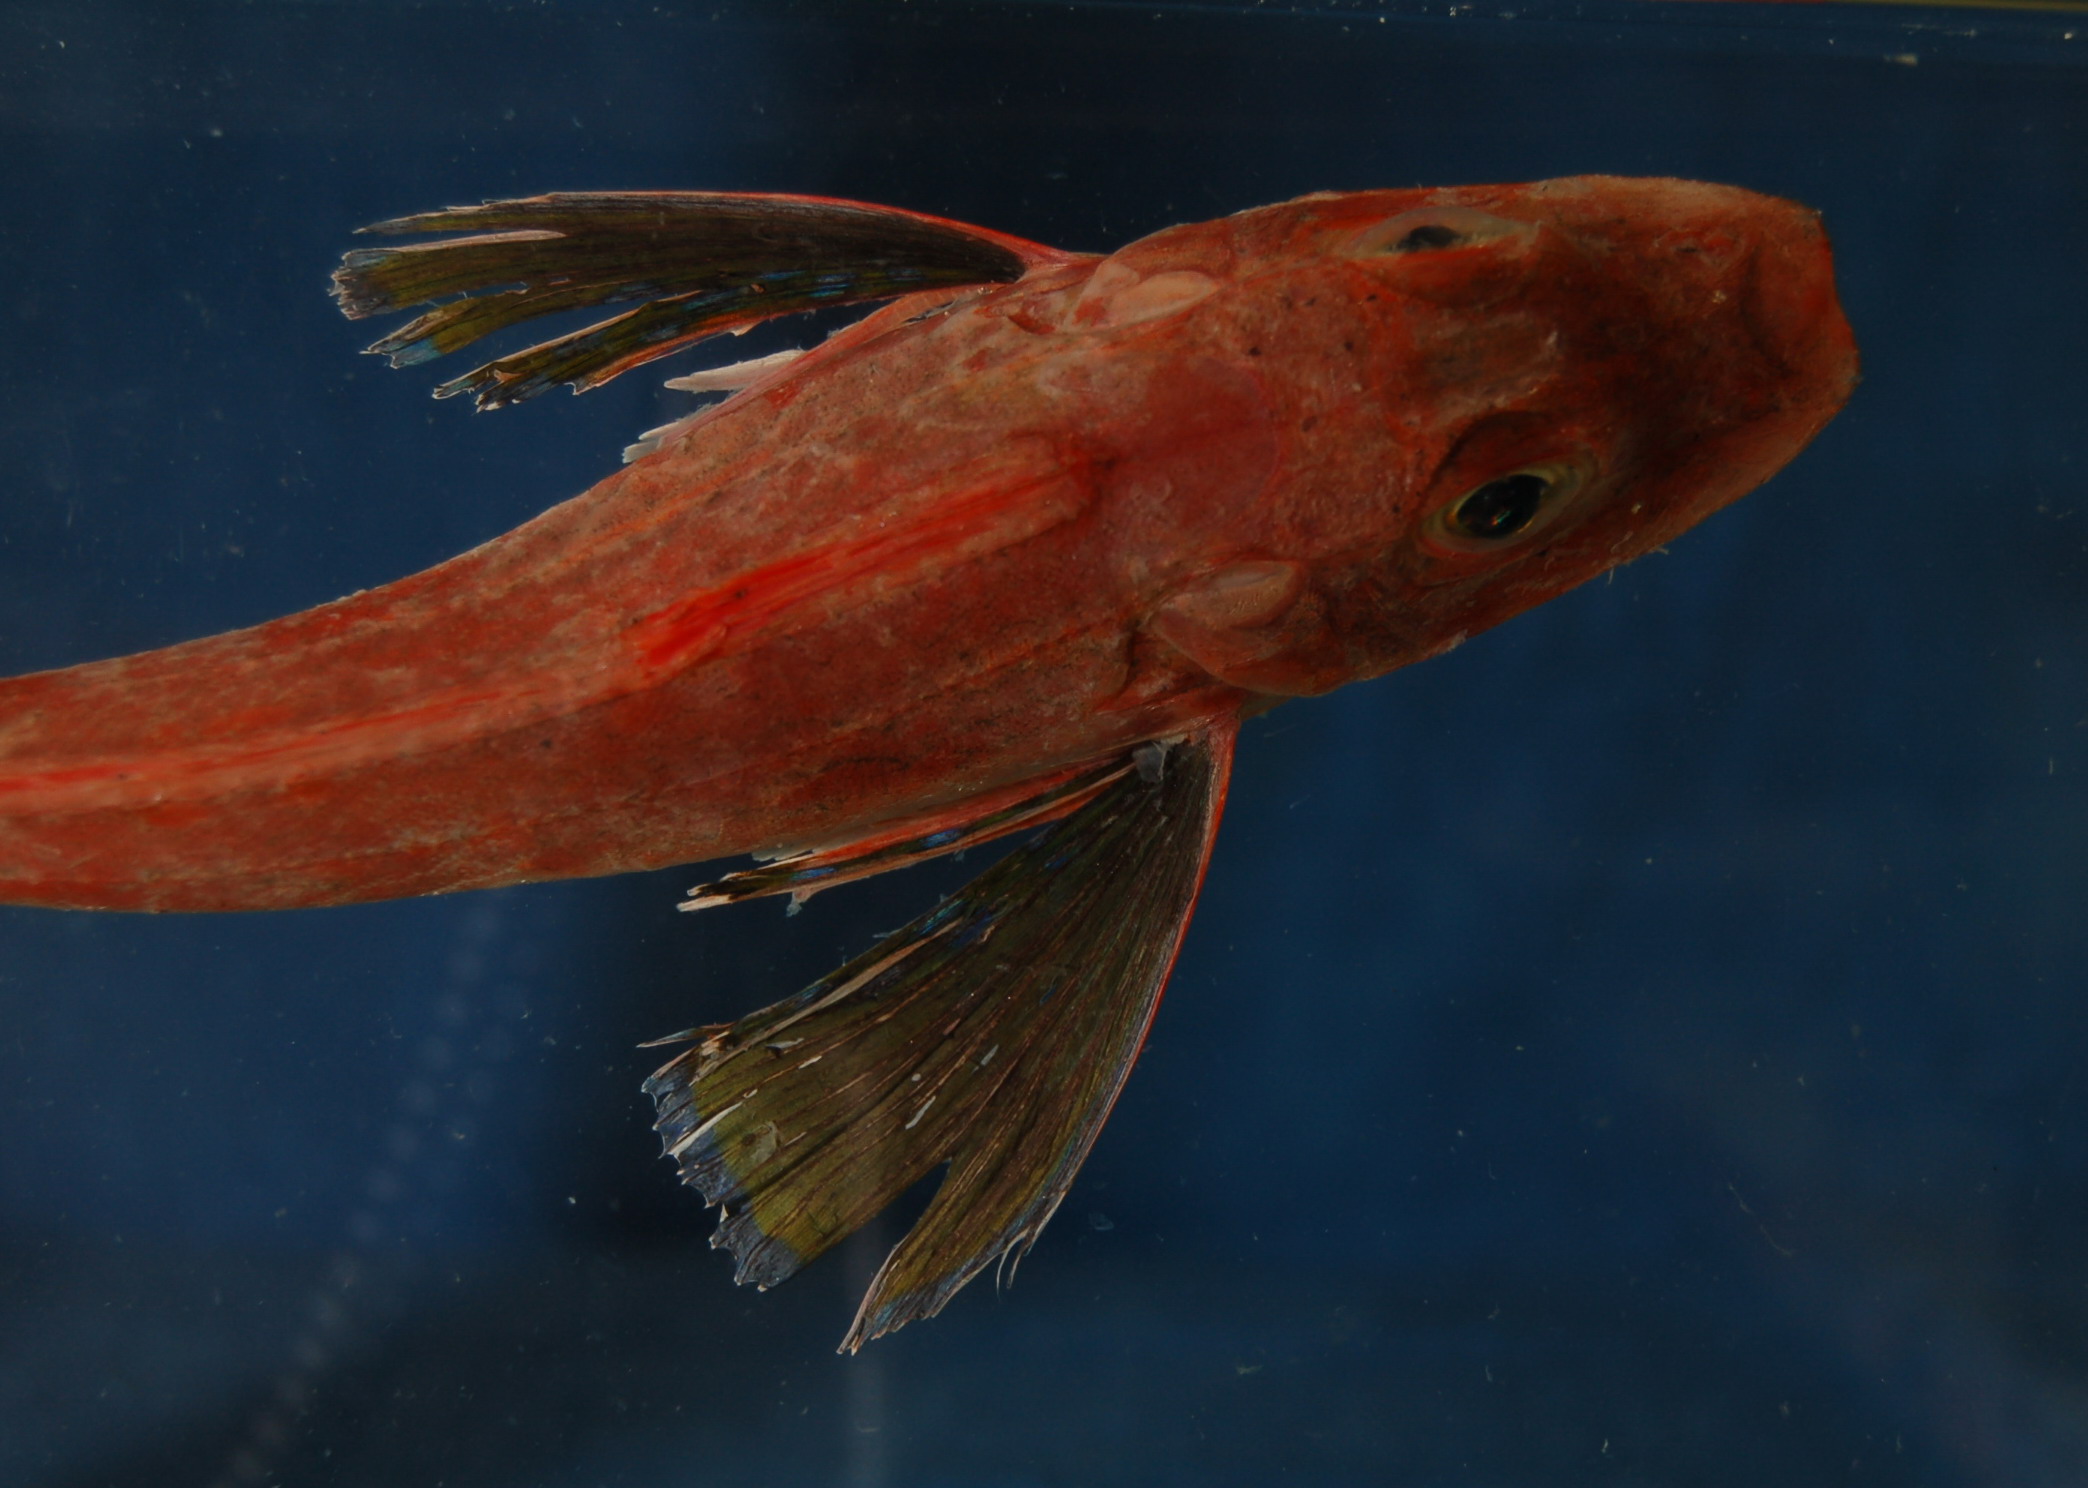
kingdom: Animalia
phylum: Chordata
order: Scorpaeniformes
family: Peristediidae
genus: Satyrichthys
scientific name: Satyrichthys laticeps
